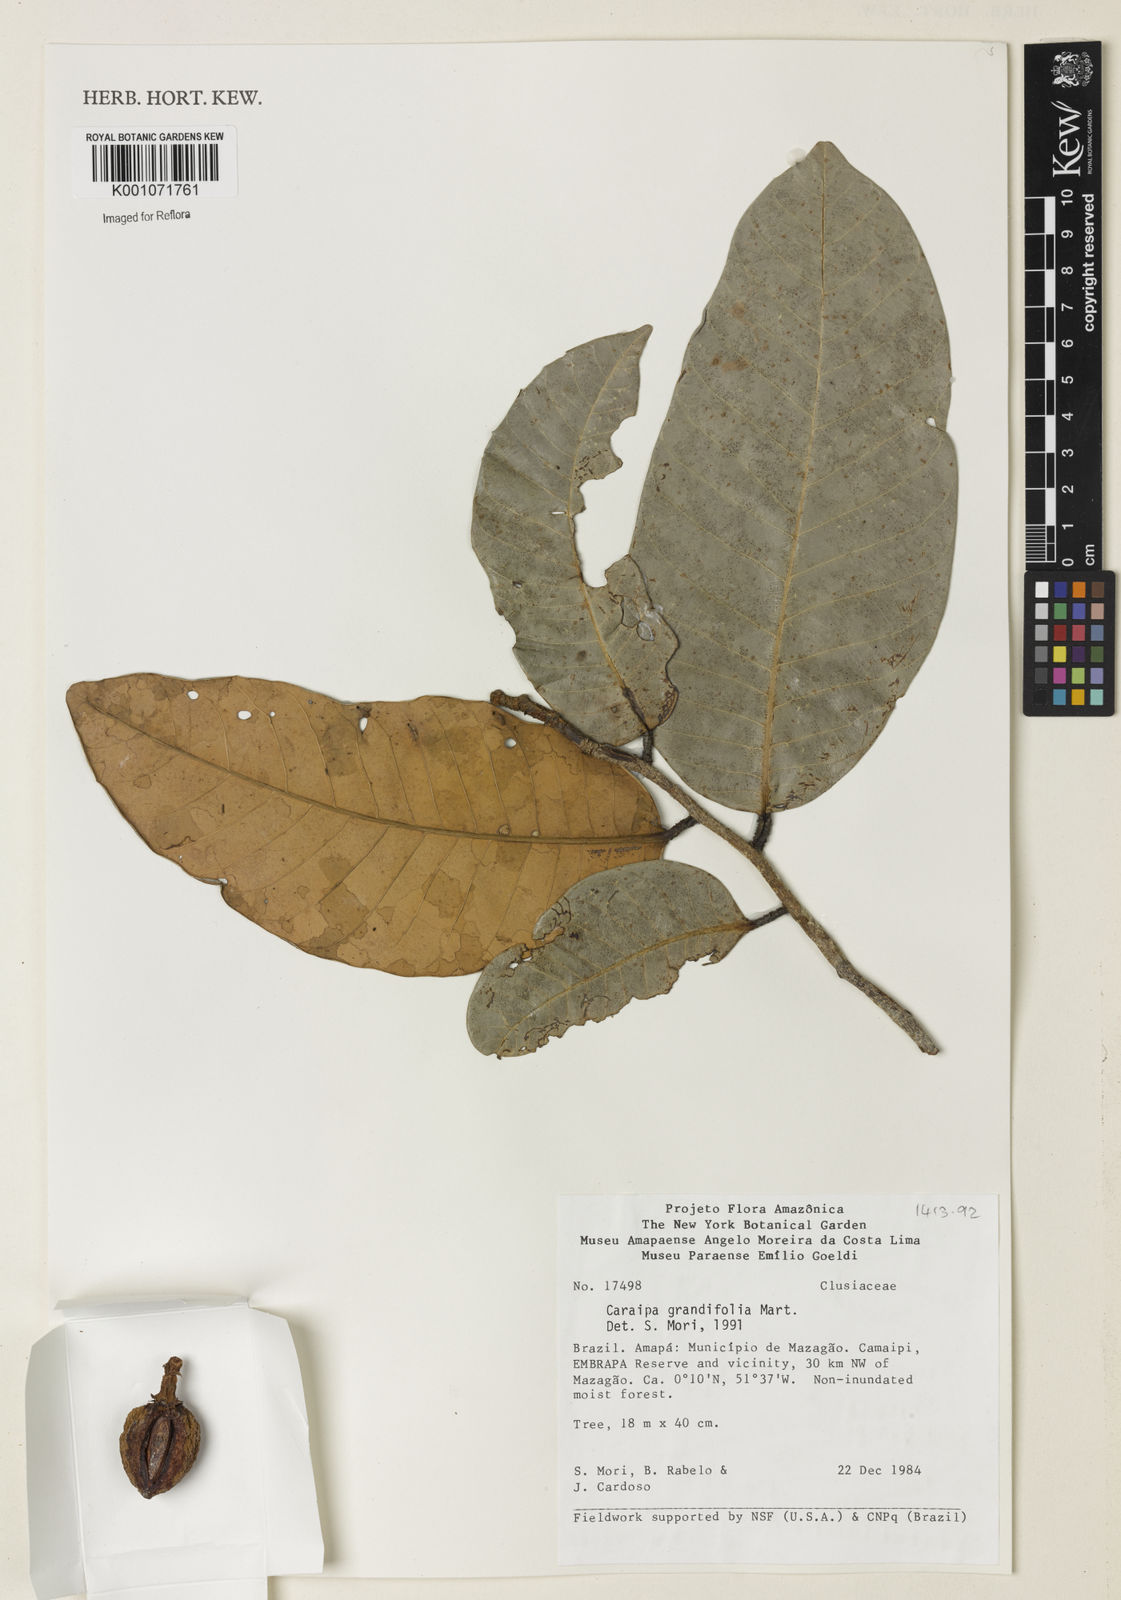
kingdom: Plantae
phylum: Tracheophyta
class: Magnoliopsida
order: Malpighiales
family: Calophyllaceae
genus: Caraipa
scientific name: Caraipa grandifolia
